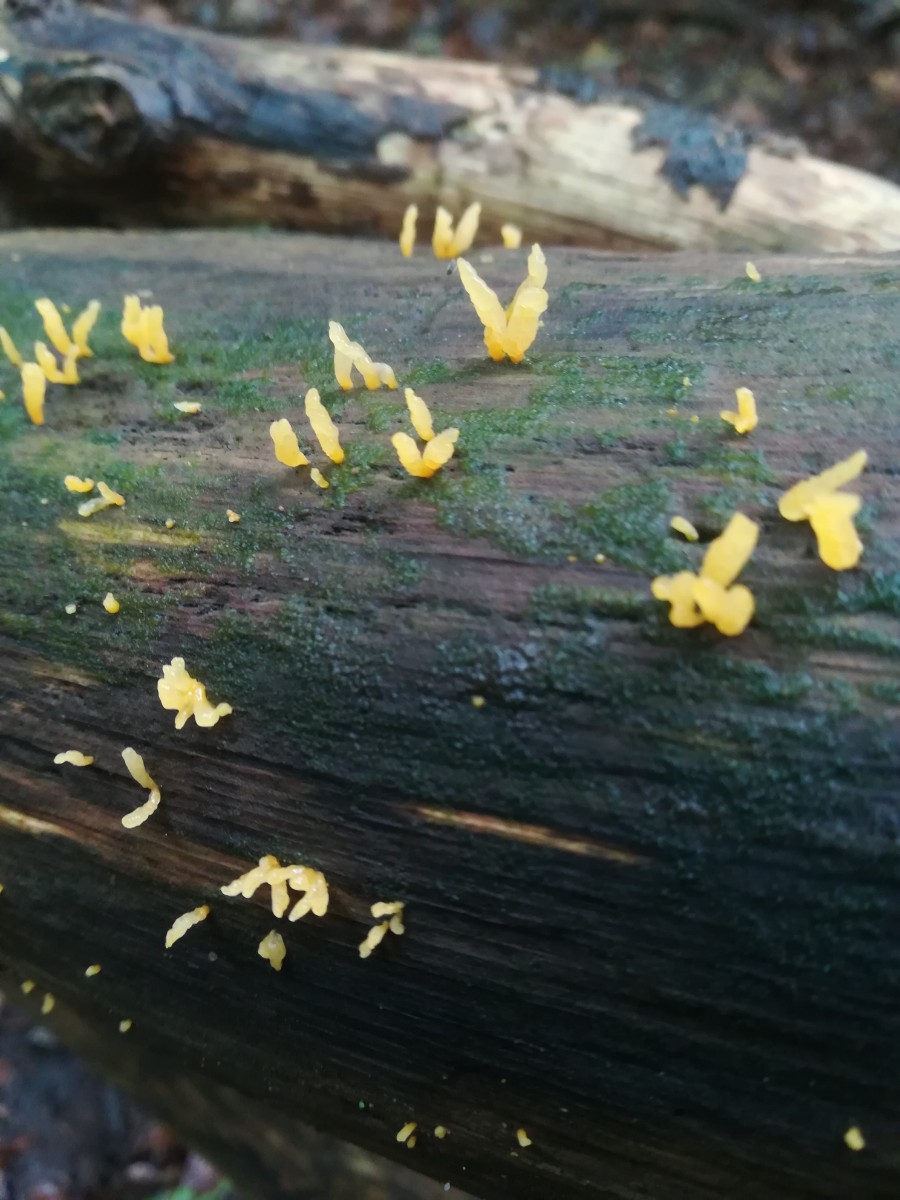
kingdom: Fungi
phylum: Basidiomycota
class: Dacrymycetes
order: Dacrymycetales
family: Dacrymycetaceae
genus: Calocera
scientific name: Calocera cornea
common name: liden guldgaffel
